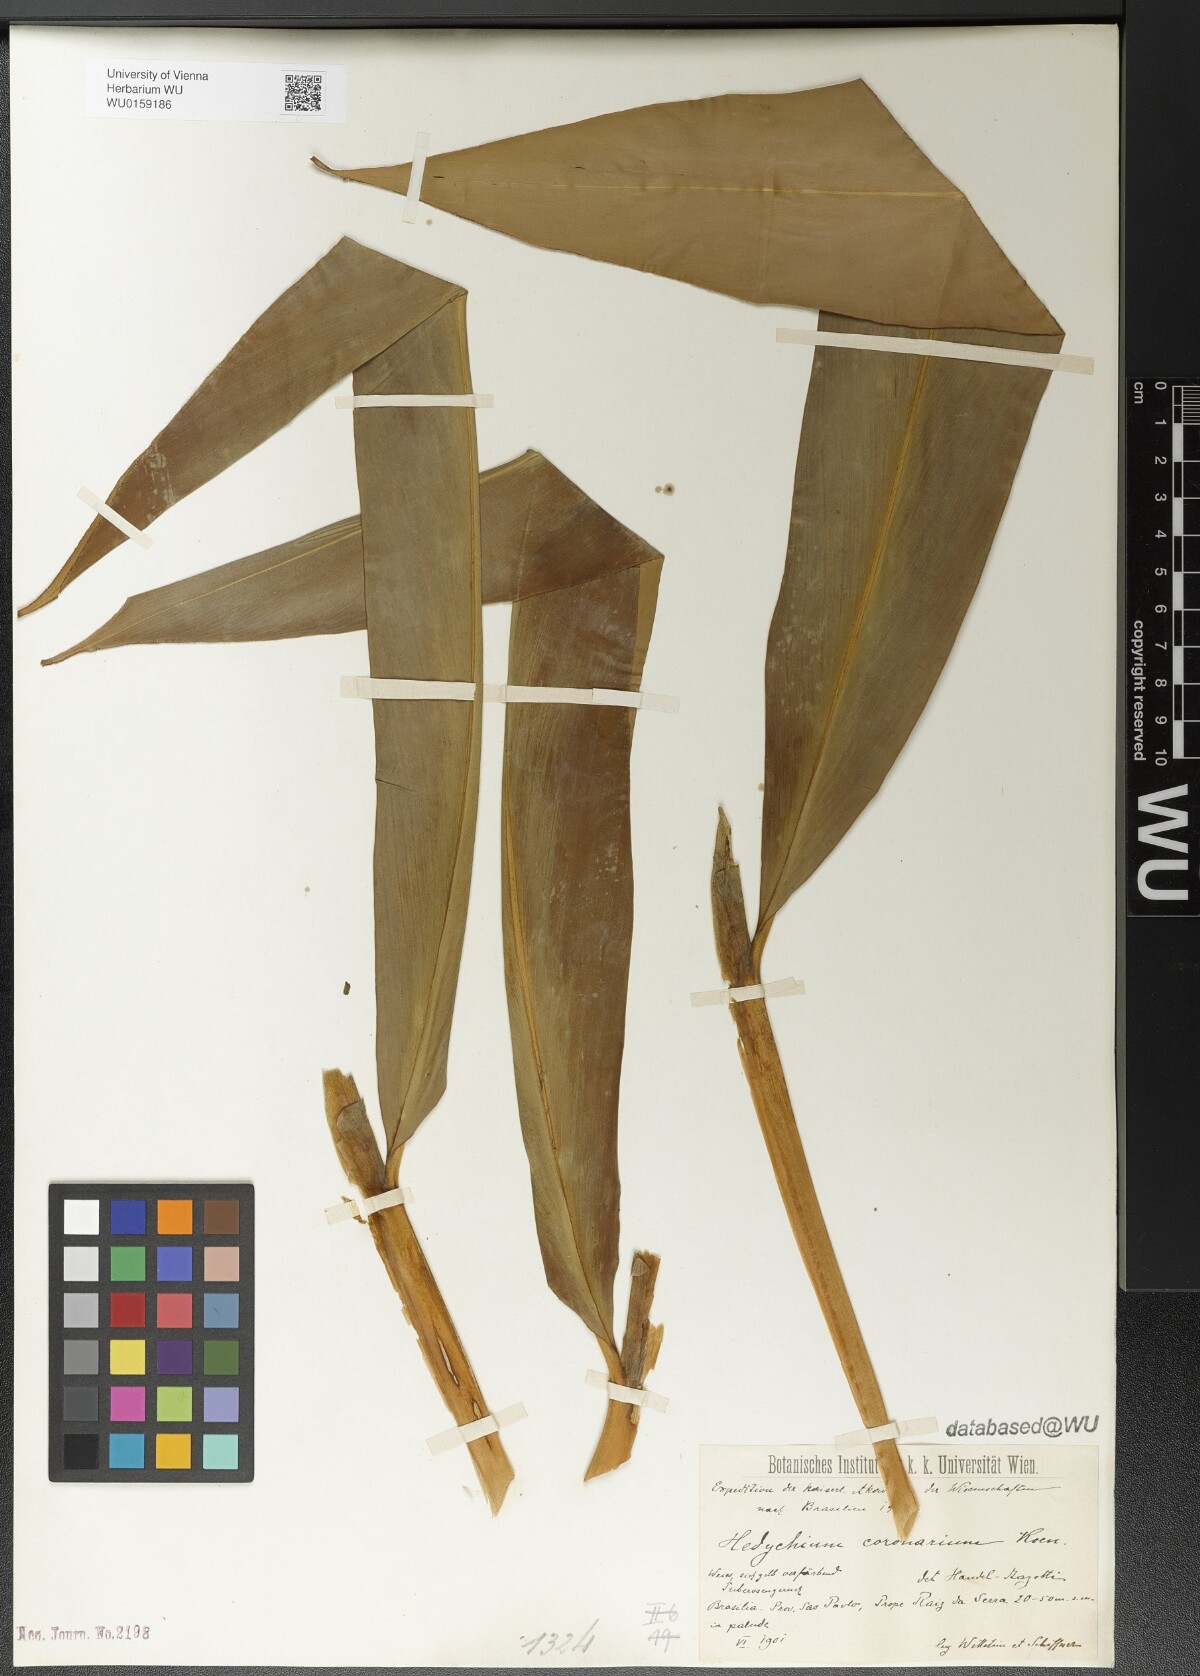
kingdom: Plantae
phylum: Tracheophyta
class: Liliopsida
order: Zingiberales
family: Zingiberaceae
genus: Hedychium
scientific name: Hedychium coronarium
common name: White garland-lily
